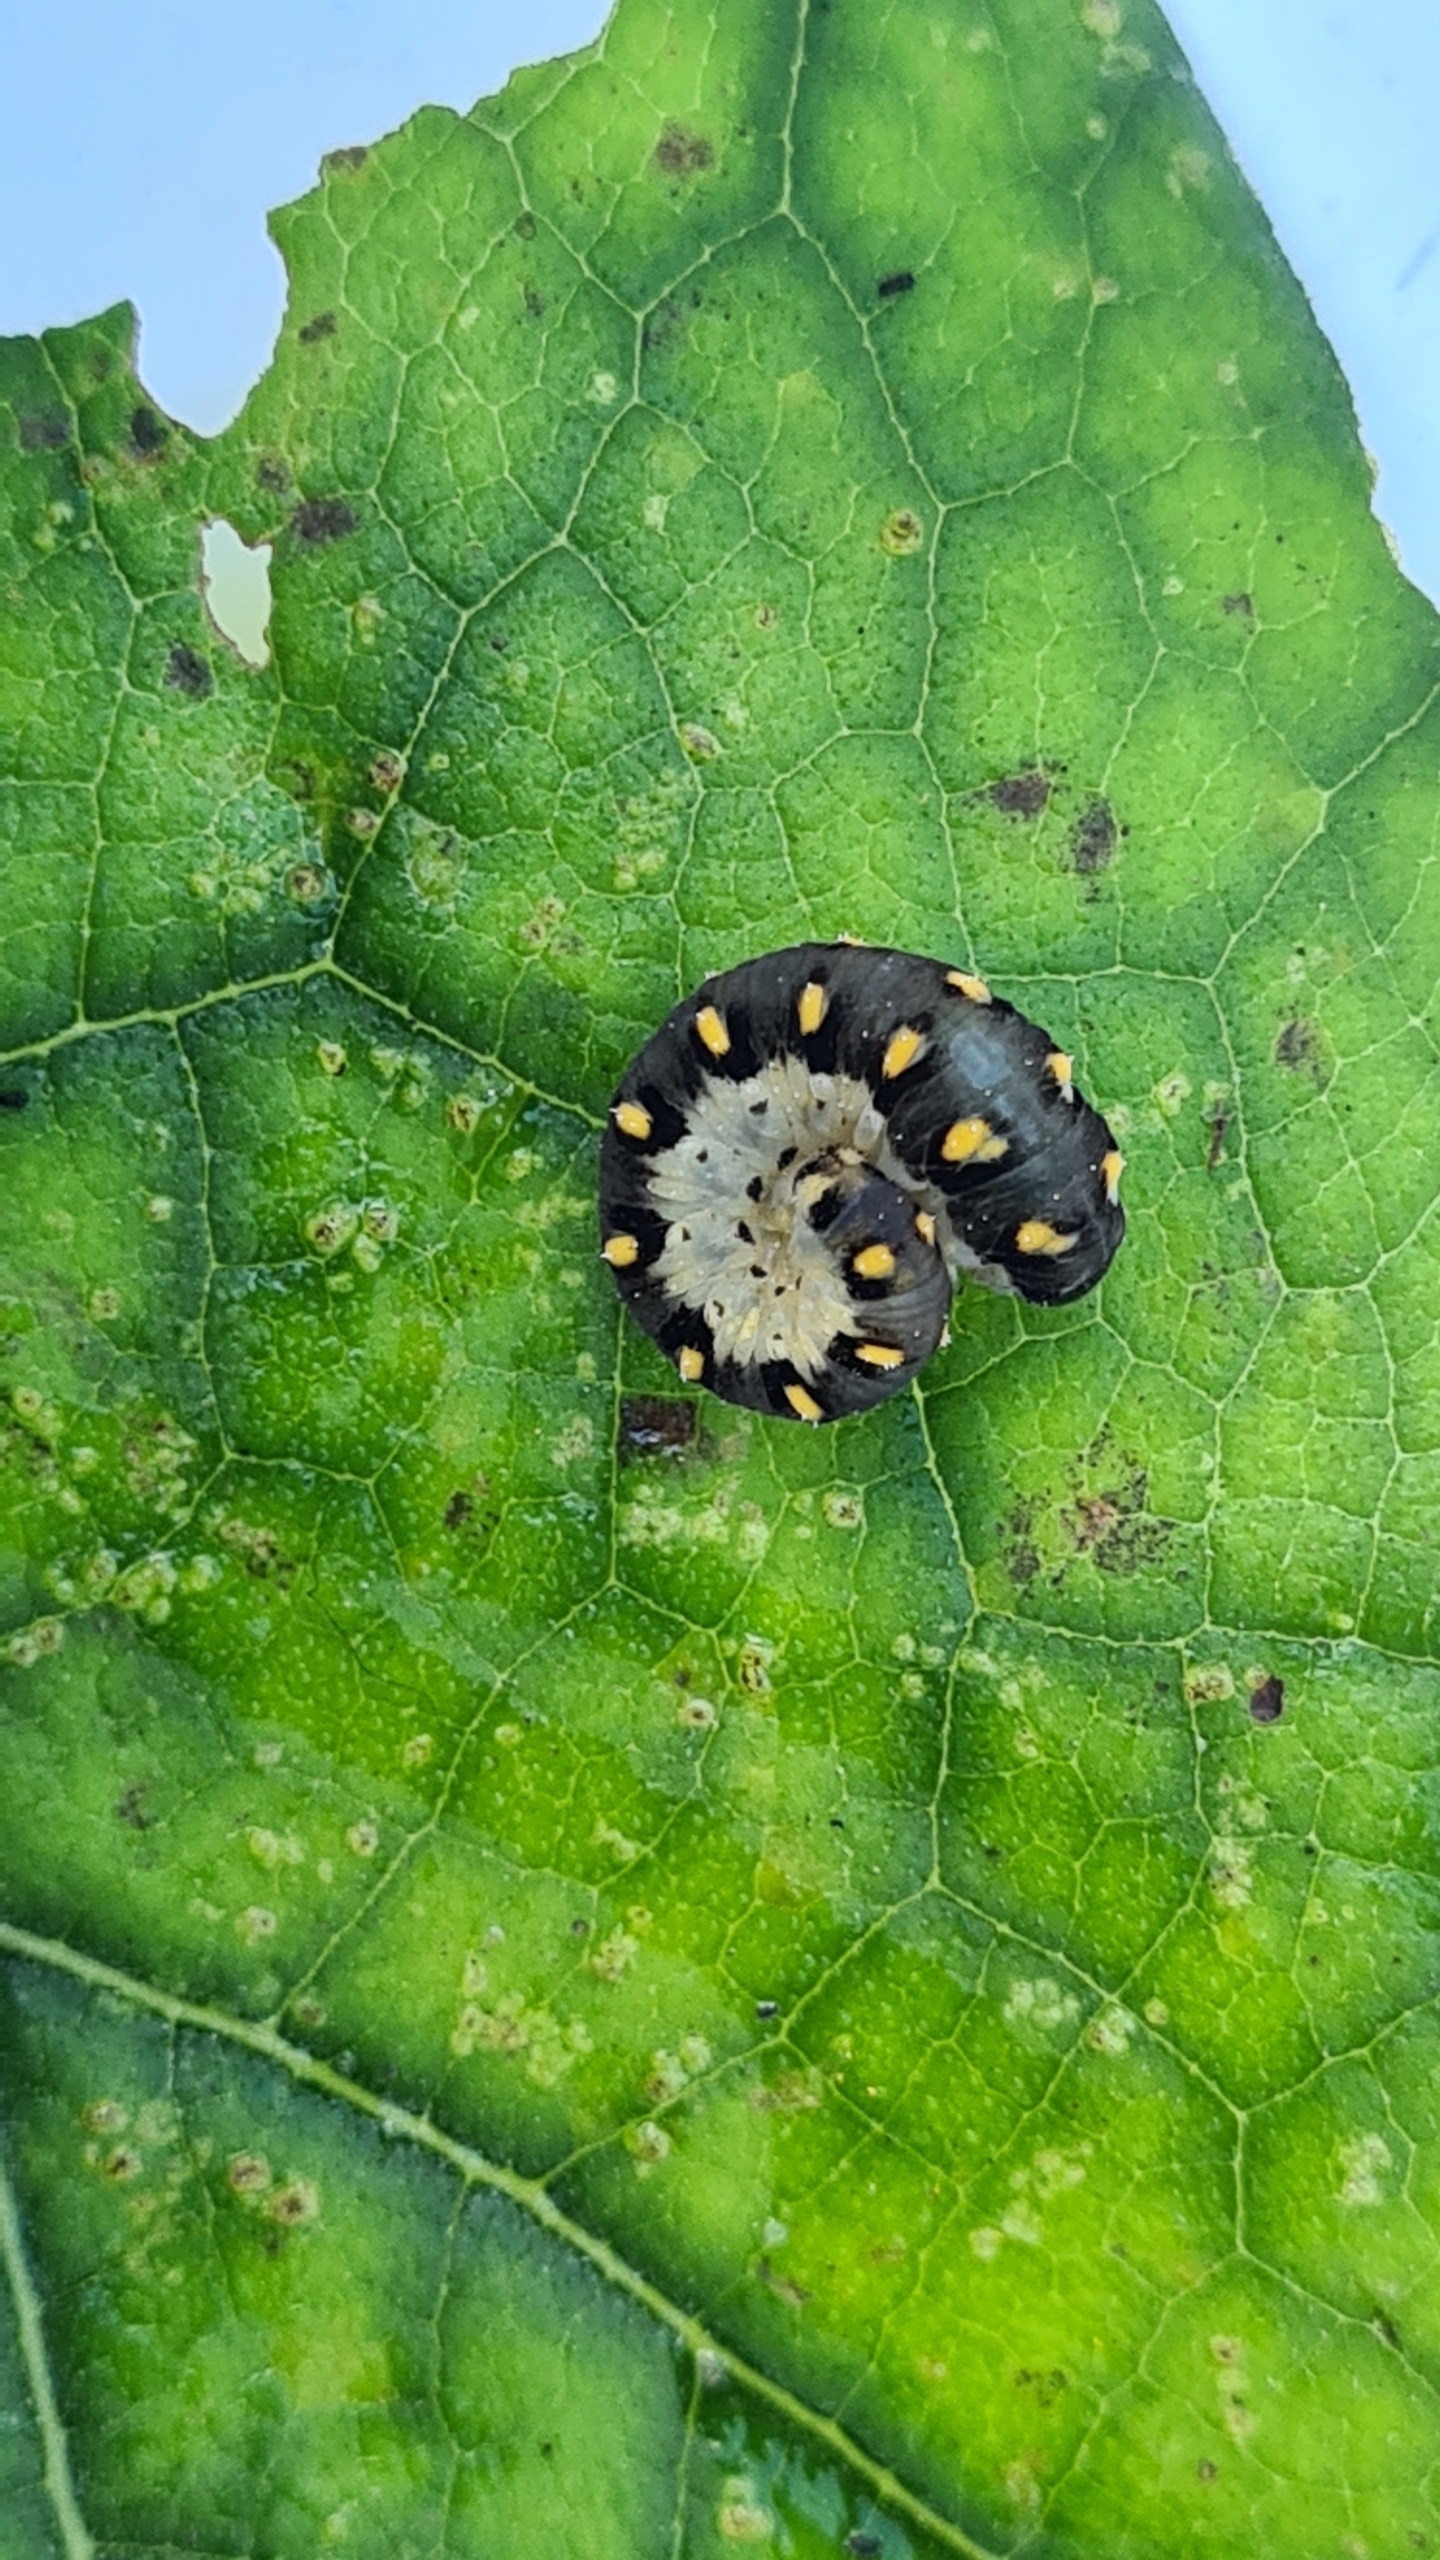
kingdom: Animalia
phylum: Arthropoda
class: Insecta
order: Hymenoptera
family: Tenthredinidae
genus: Tenthredo
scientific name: Tenthredo mandibularis
